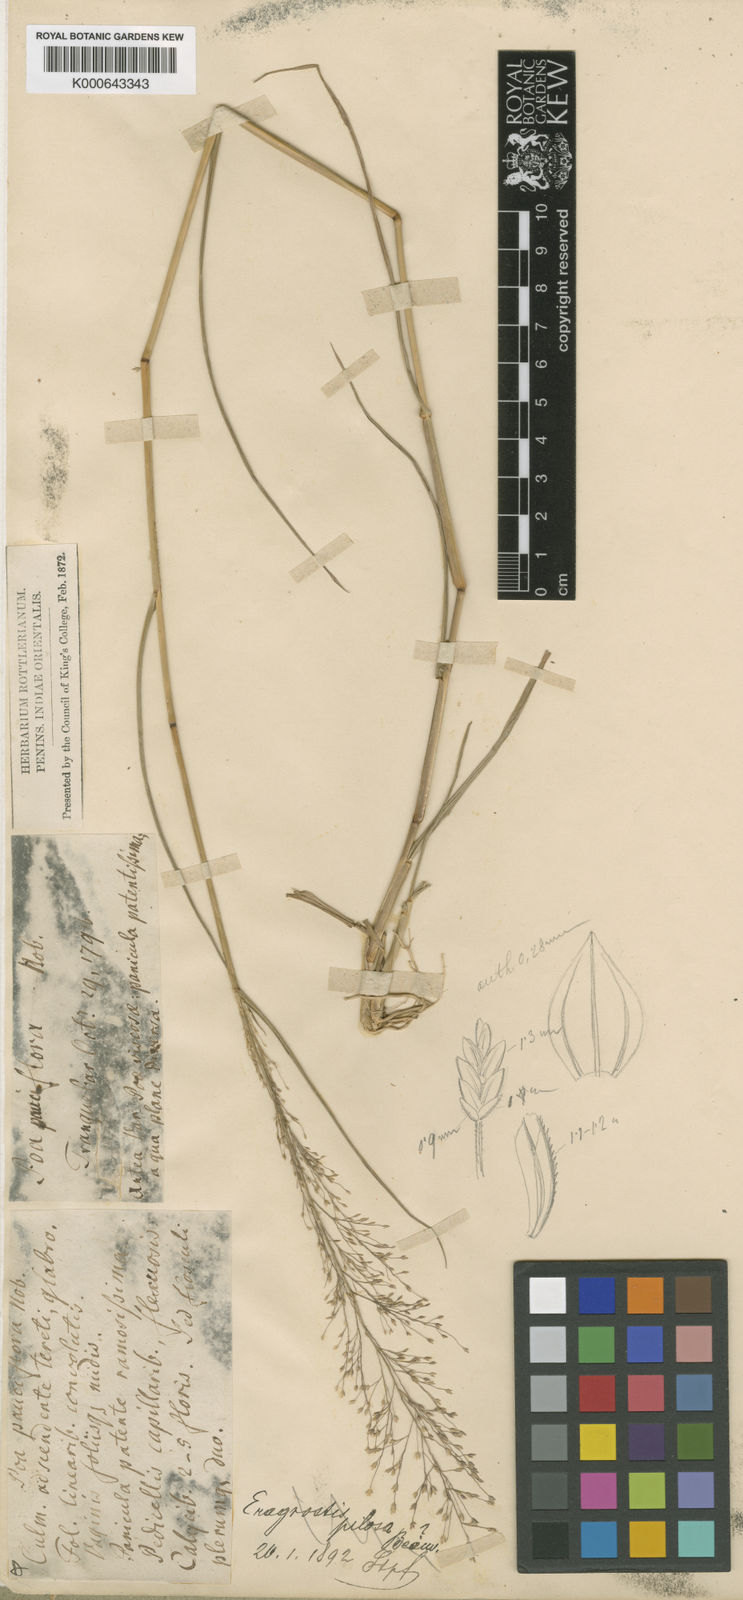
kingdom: Plantae
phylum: Tracheophyta
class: Liliopsida
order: Poales
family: Poaceae
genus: Eragrostis
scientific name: Eragrostis rottleri
